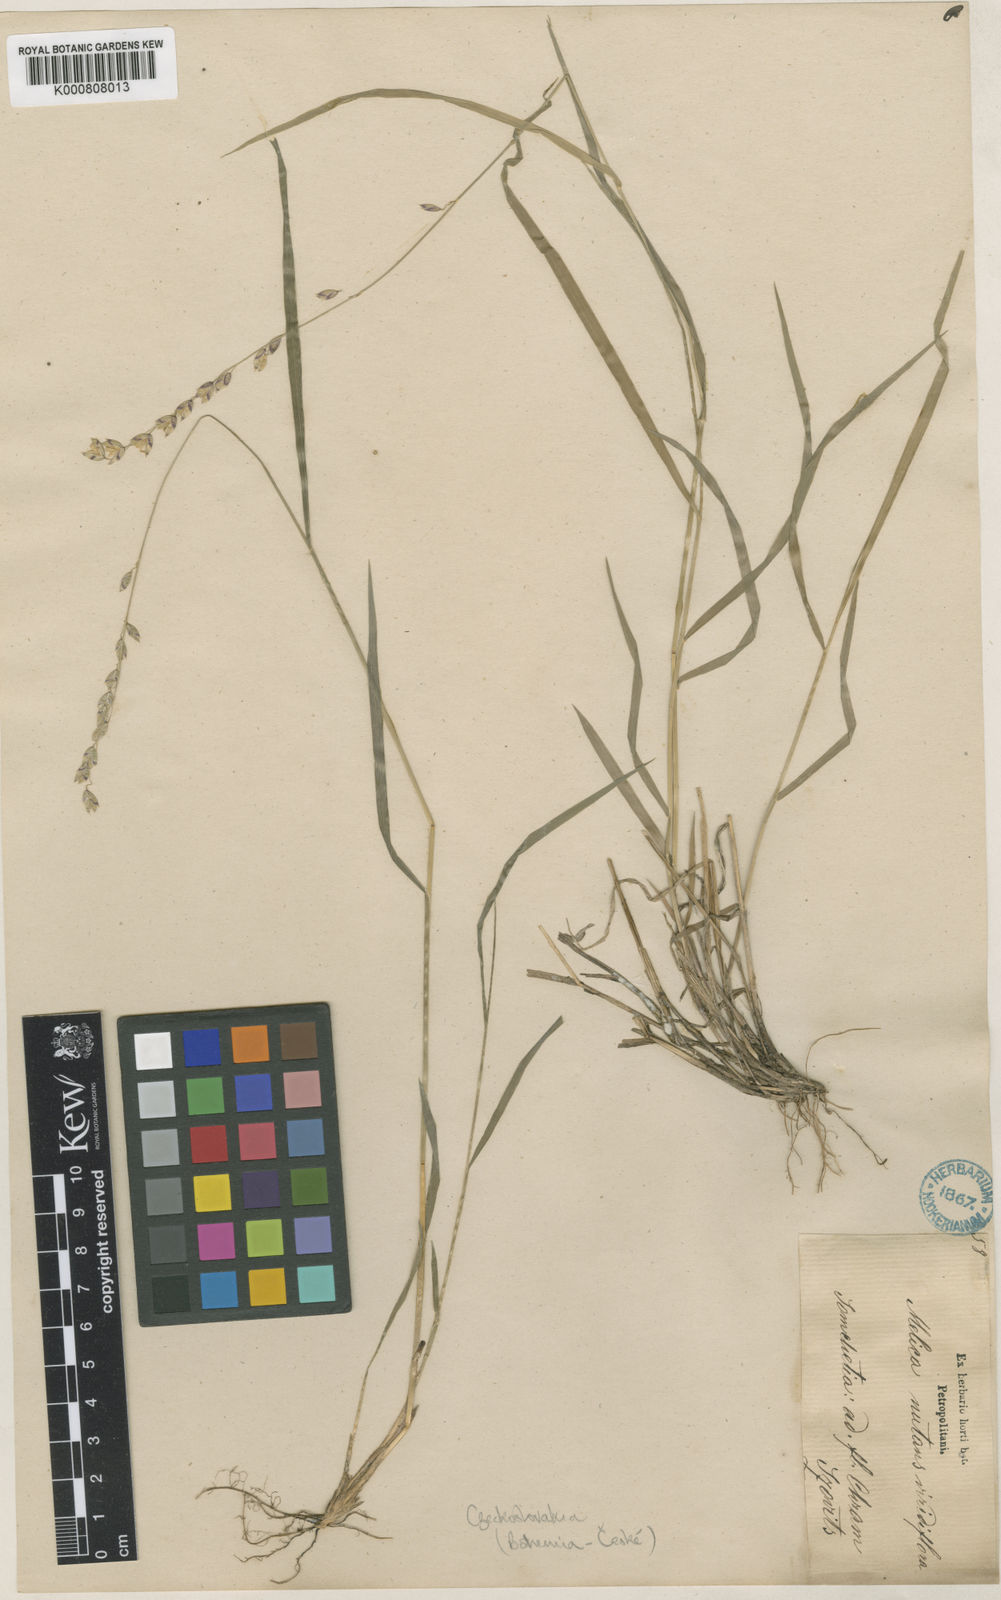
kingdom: Plantae
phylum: Tracheophyta
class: Liliopsida
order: Poales
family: Poaceae
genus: Melica
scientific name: Melica nutans
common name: Mountain melick
